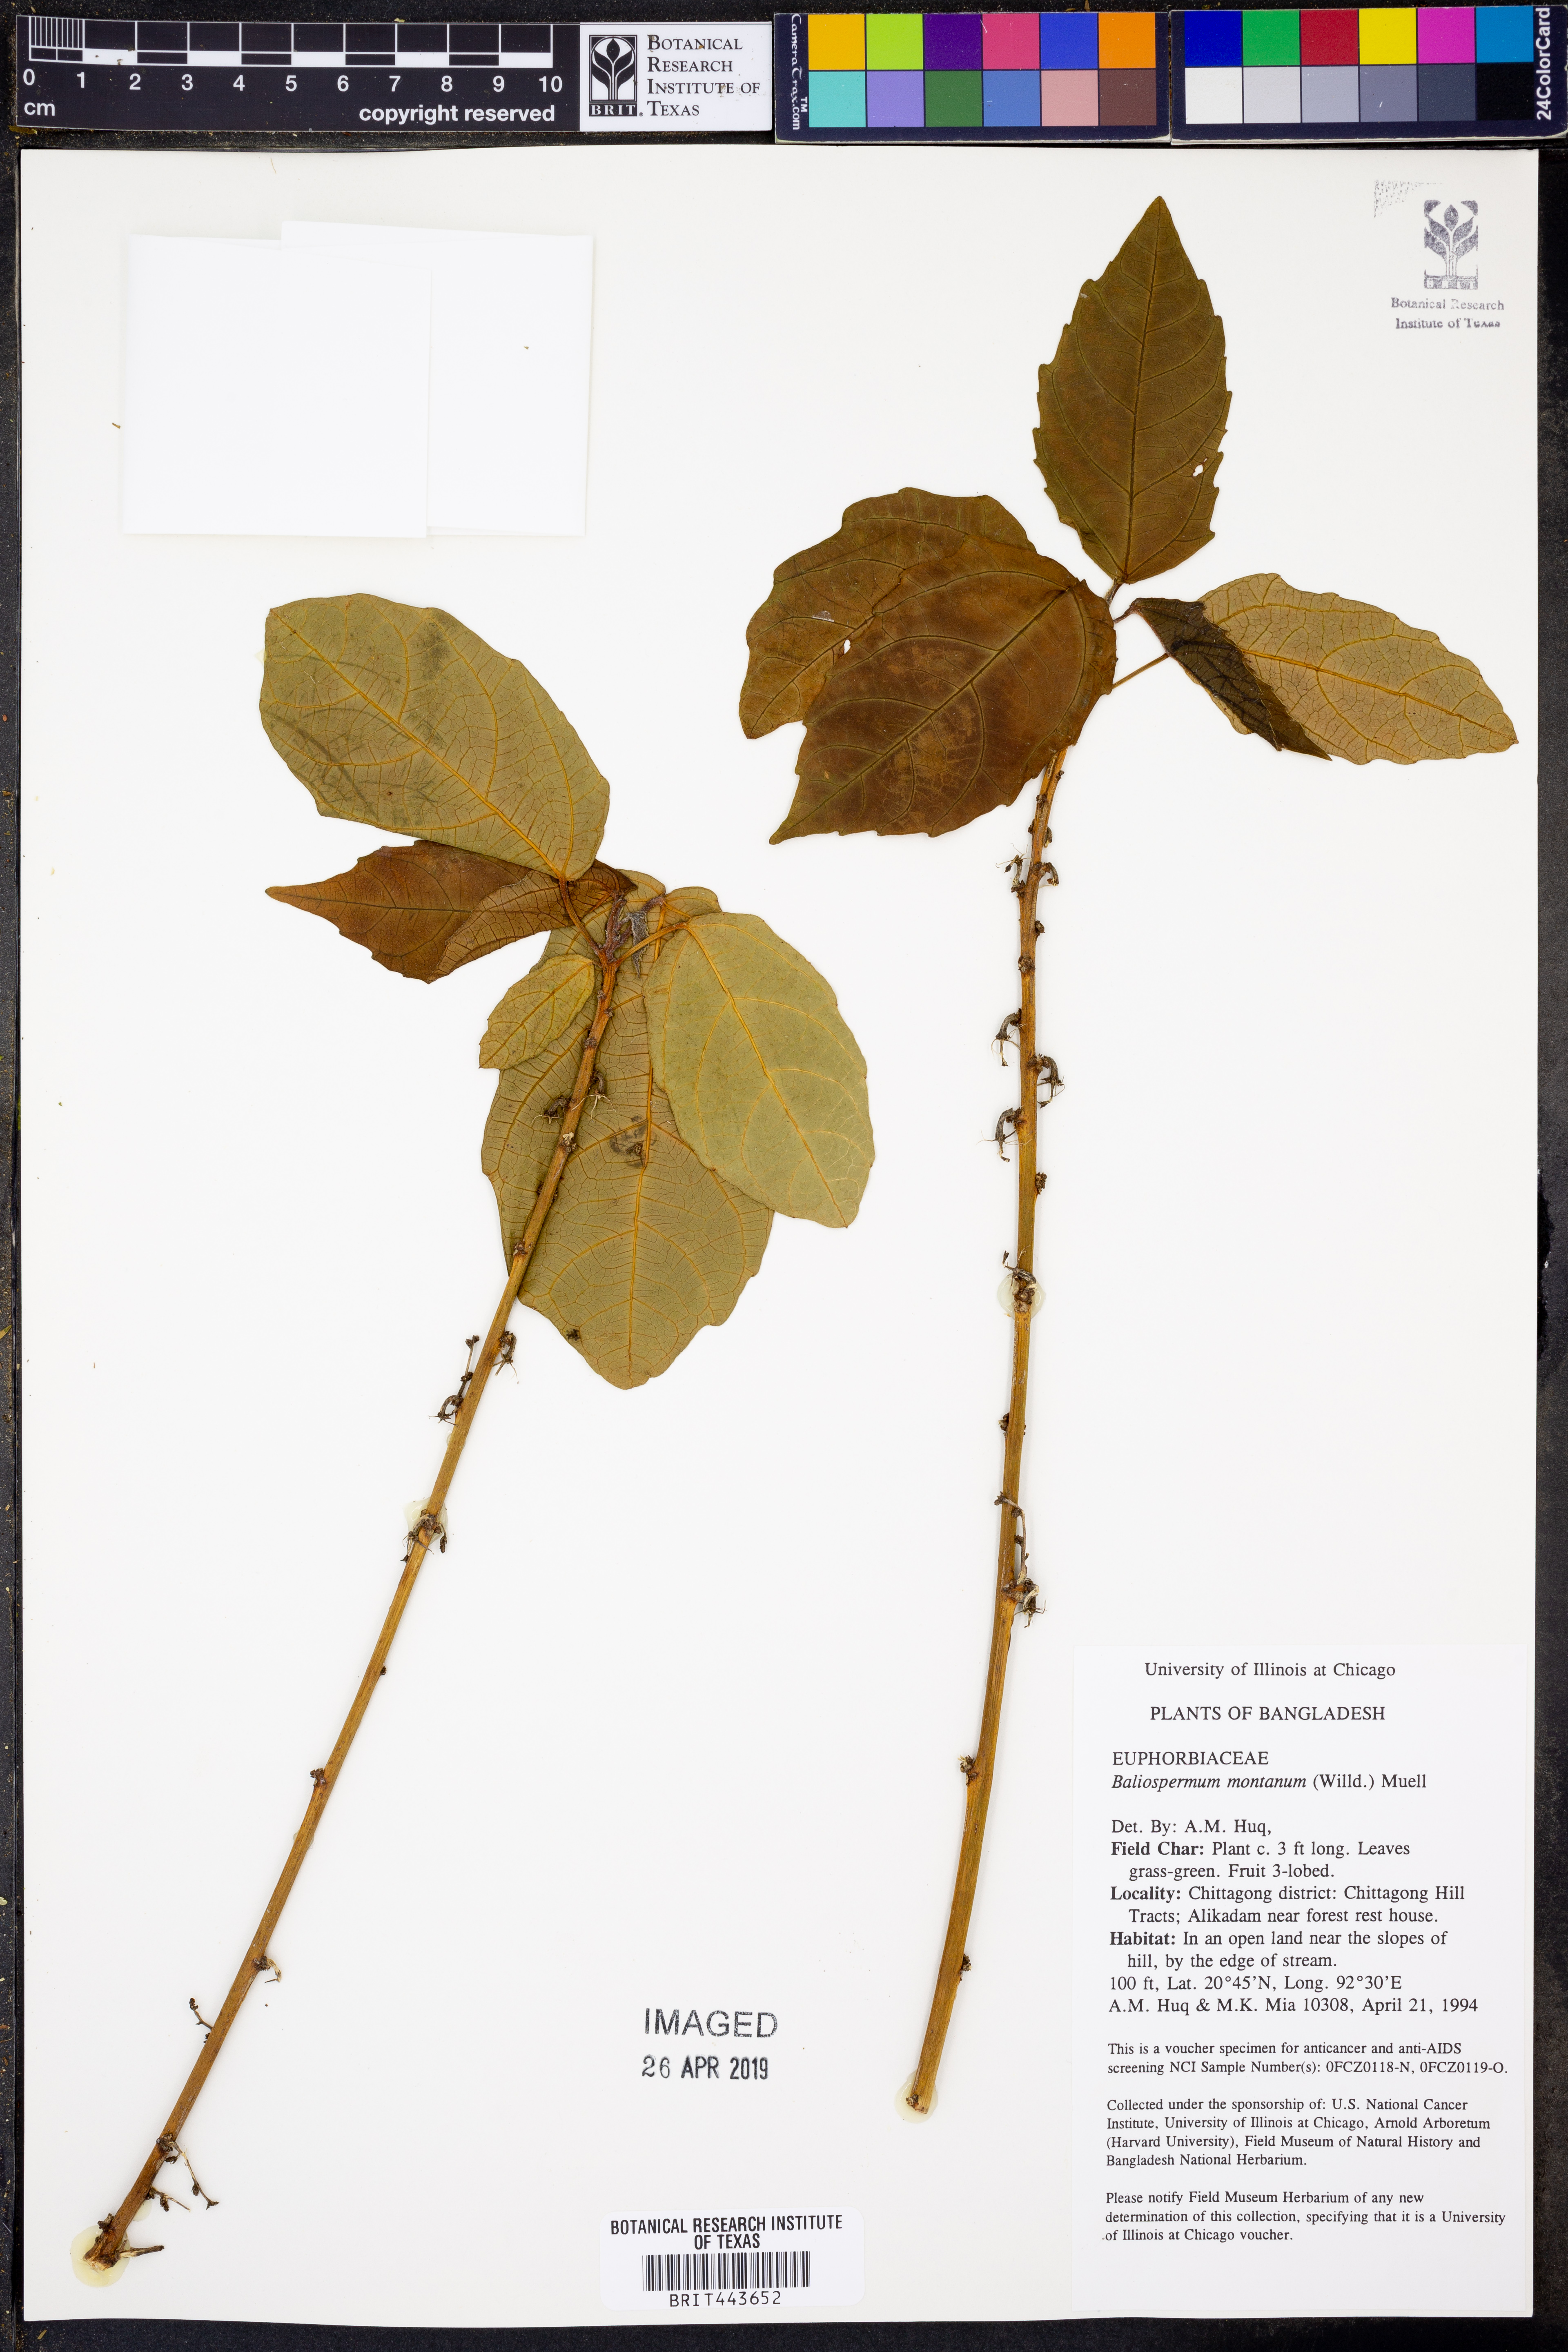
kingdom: Plantae
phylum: Tracheophyta
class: Magnoliopsida
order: Malpighiales
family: Euphorbiaceae
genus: Baliospermum
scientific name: Baliospermum solanifolium
